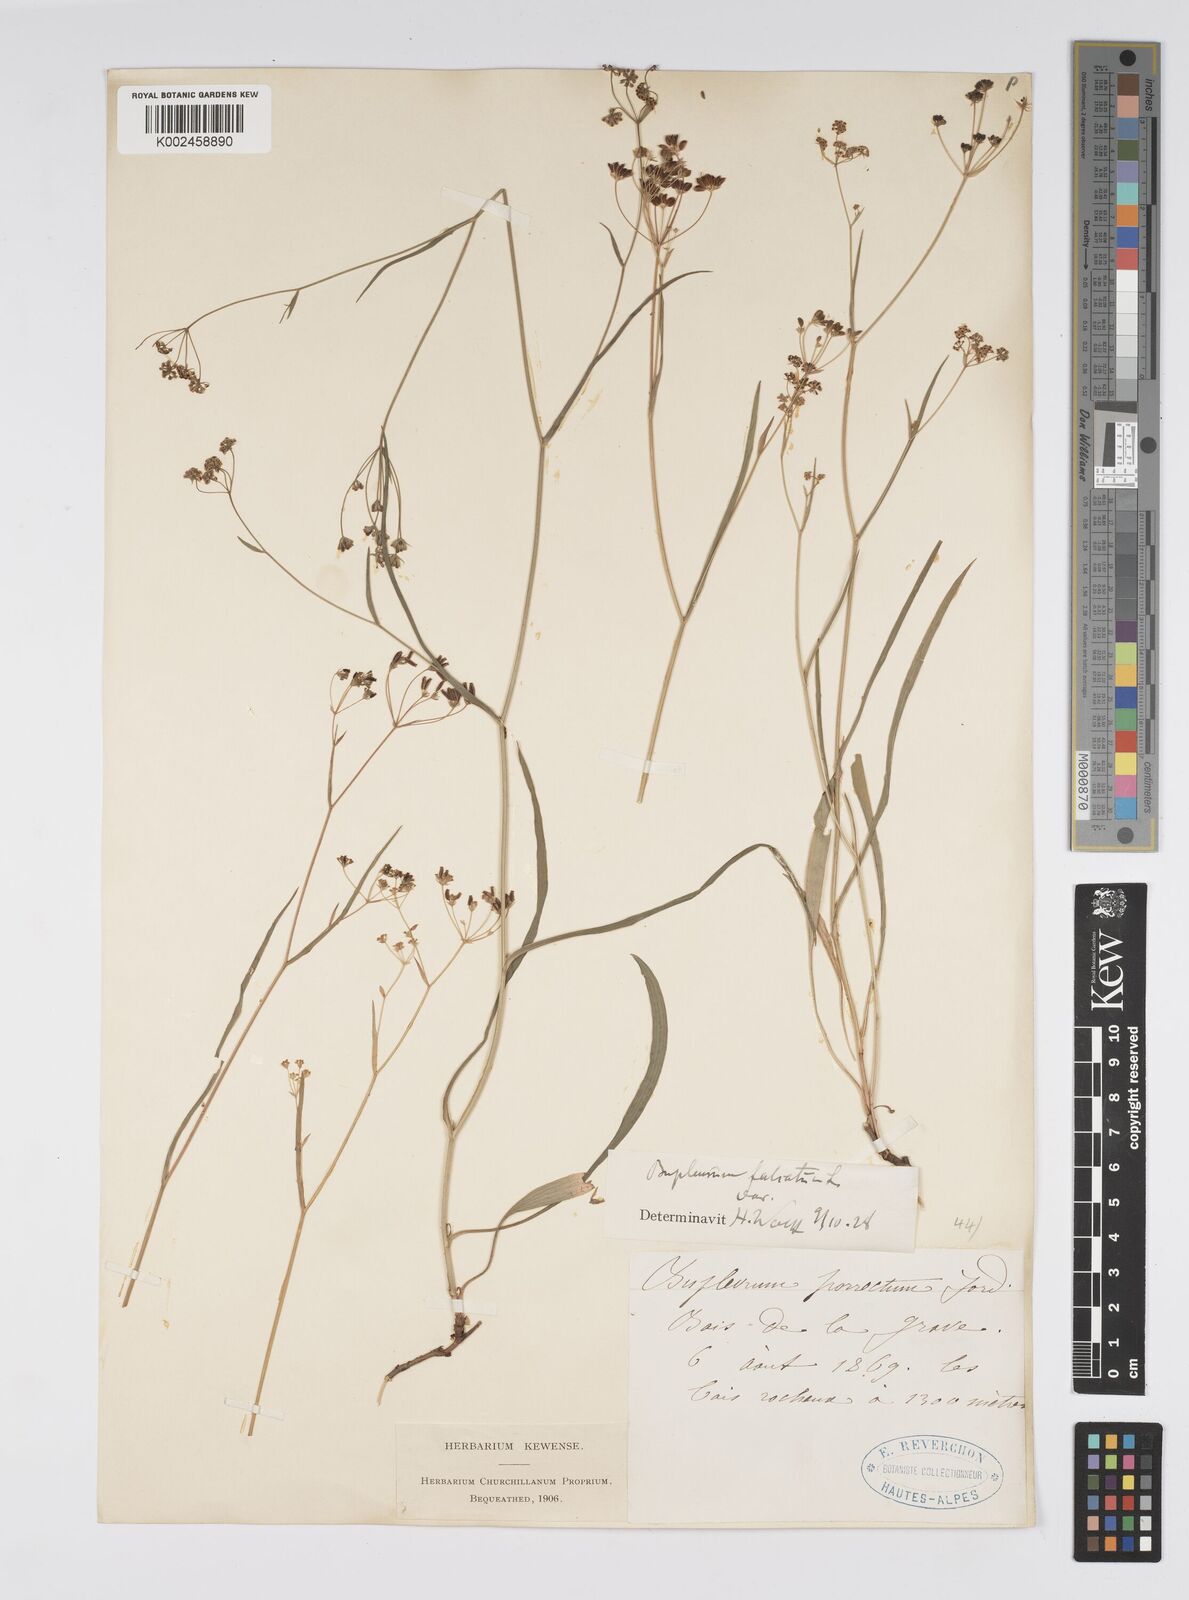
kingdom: Plantae
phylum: Tracheophyta
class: Magnoliopsida
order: Apiales
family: Apiaceae
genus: Bupleurum
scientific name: Bupleurum falcatum
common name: Sickle-leaved hare's-ear
